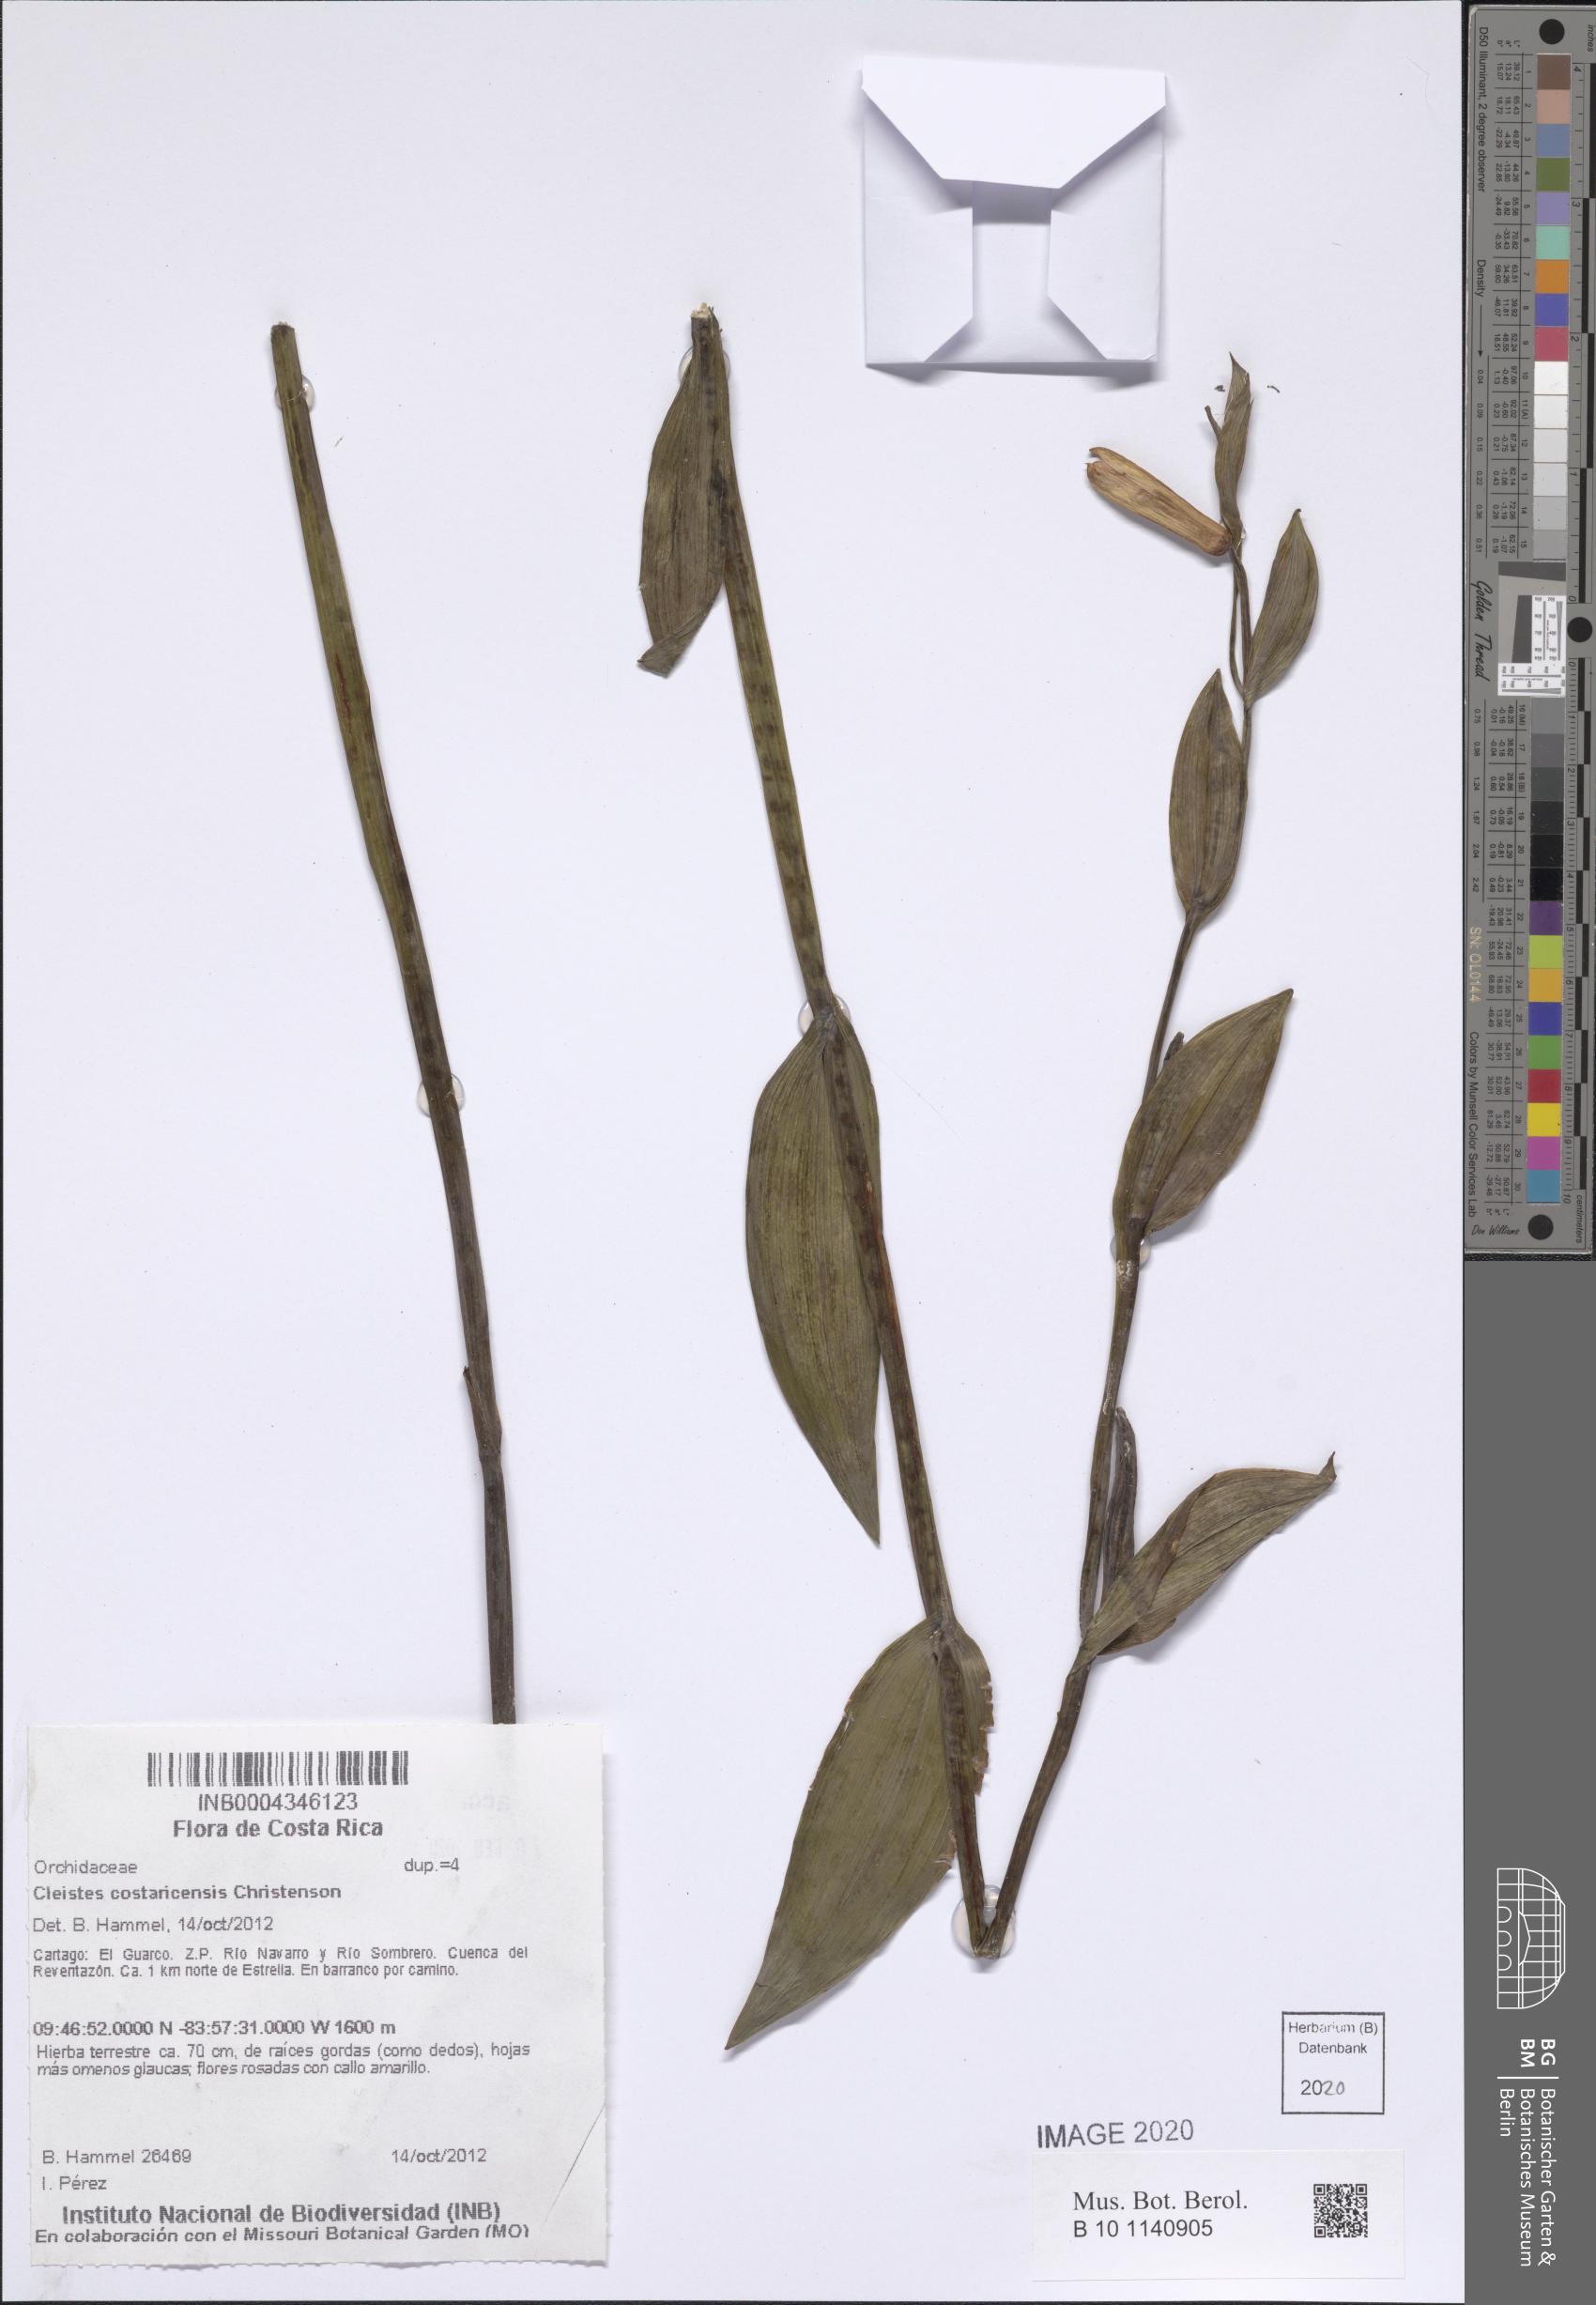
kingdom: Plantae
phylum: Tracheophyta
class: Liliopsida
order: Asparagales
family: Orchidaceae
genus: Cleistes
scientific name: Cleistes costaricensis
